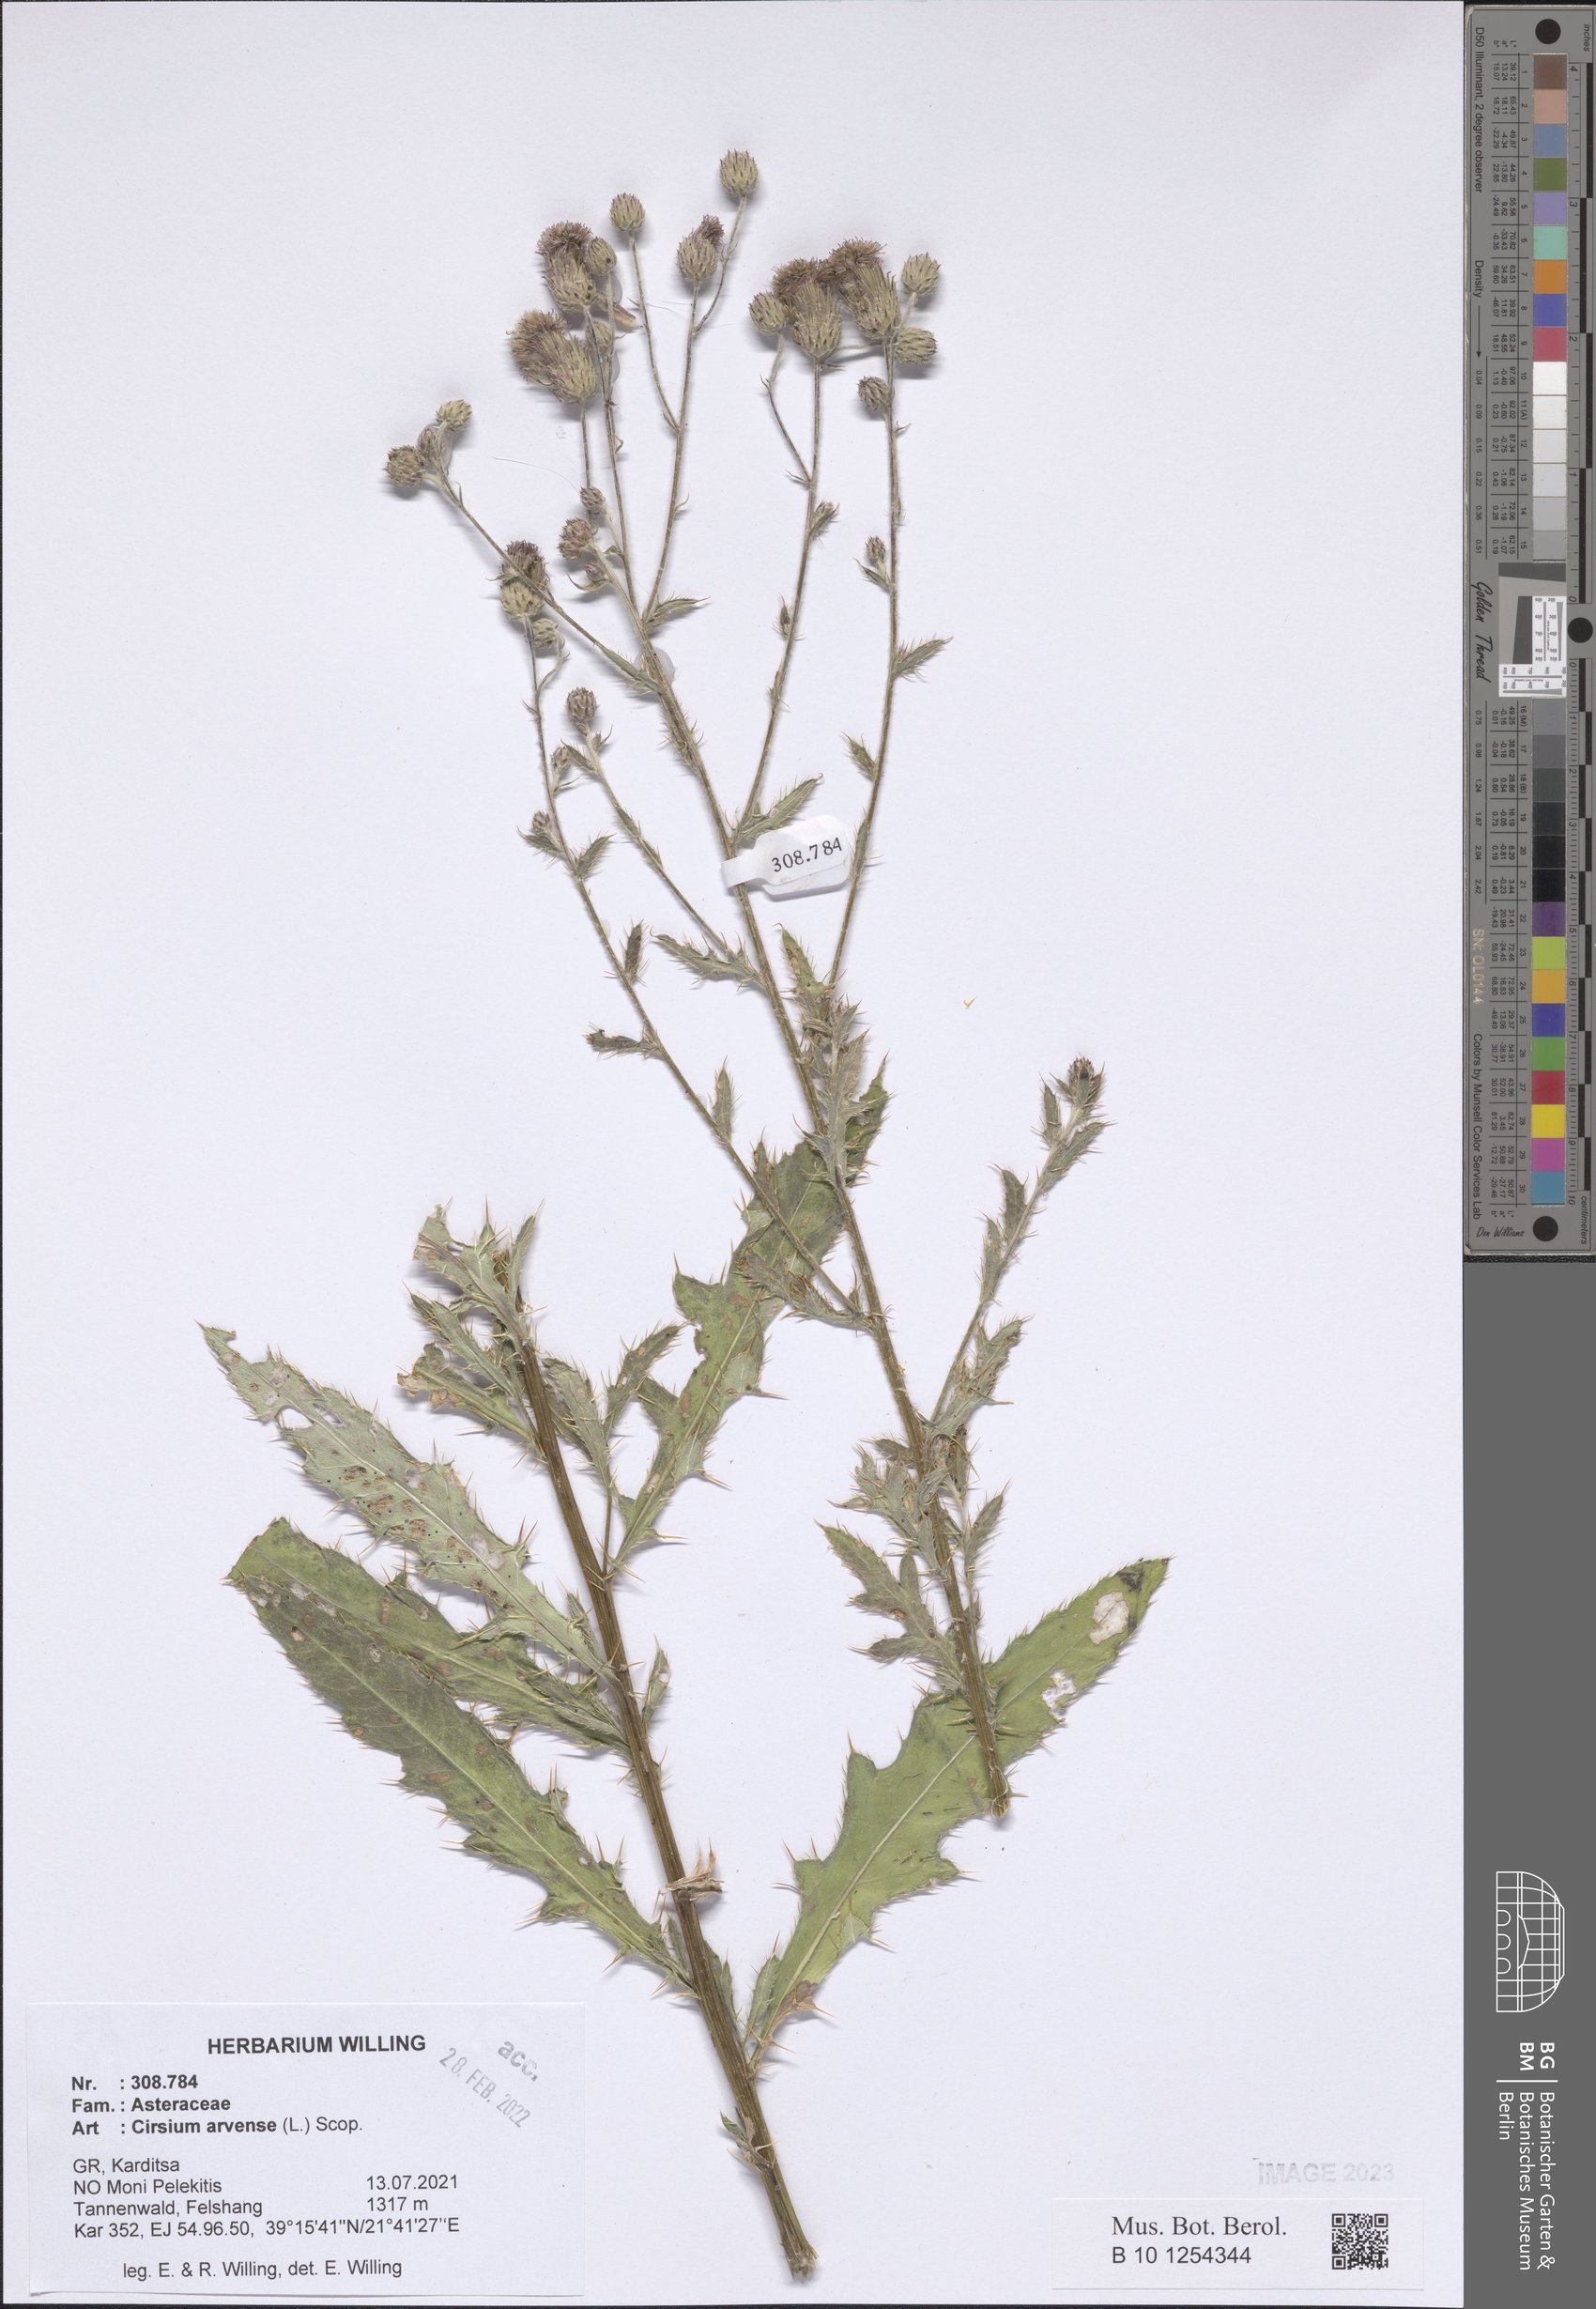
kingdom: Plantae
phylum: Tracheophyta
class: Magnoliopsida
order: Asterales
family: Asteraceae
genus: Cirsium
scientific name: Cirsium arvense
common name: Creeping thistle
